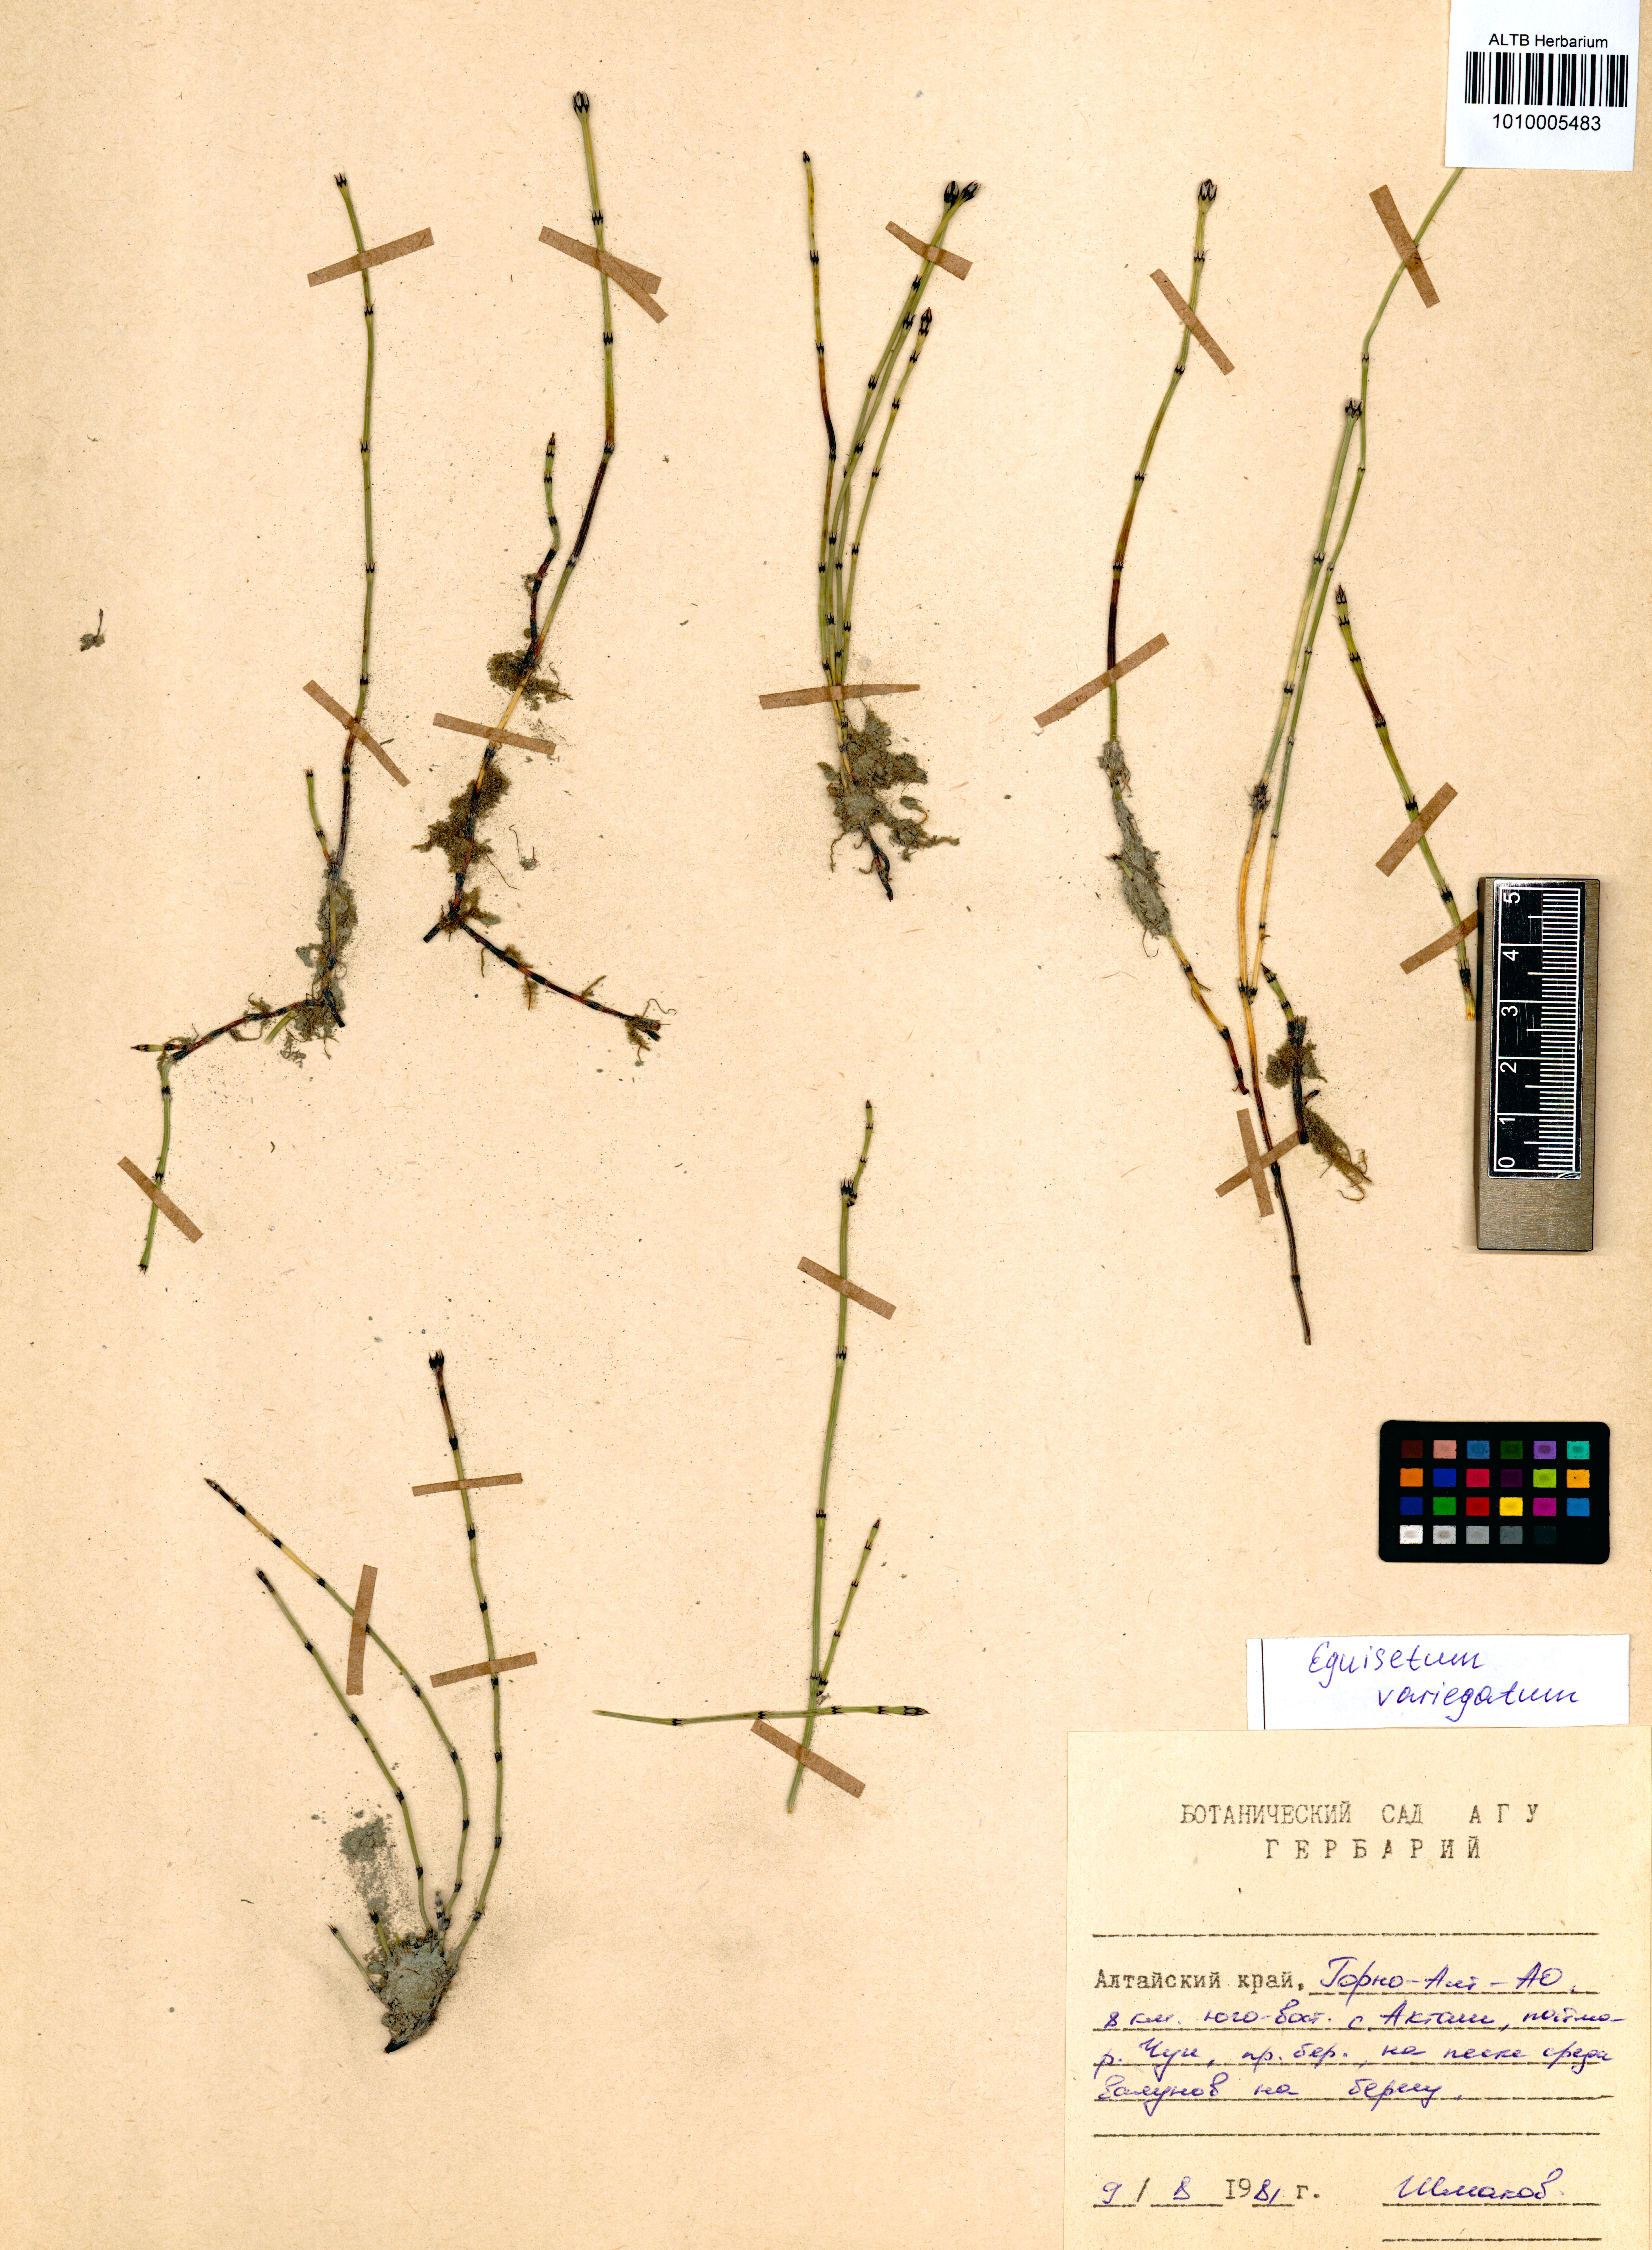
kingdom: Plantae
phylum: Tracheophyta
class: Polypodiopsida
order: Equisetales
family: Equisetaceae
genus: Equisetum
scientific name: Equisetum variegatum
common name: Variegated horsetail
